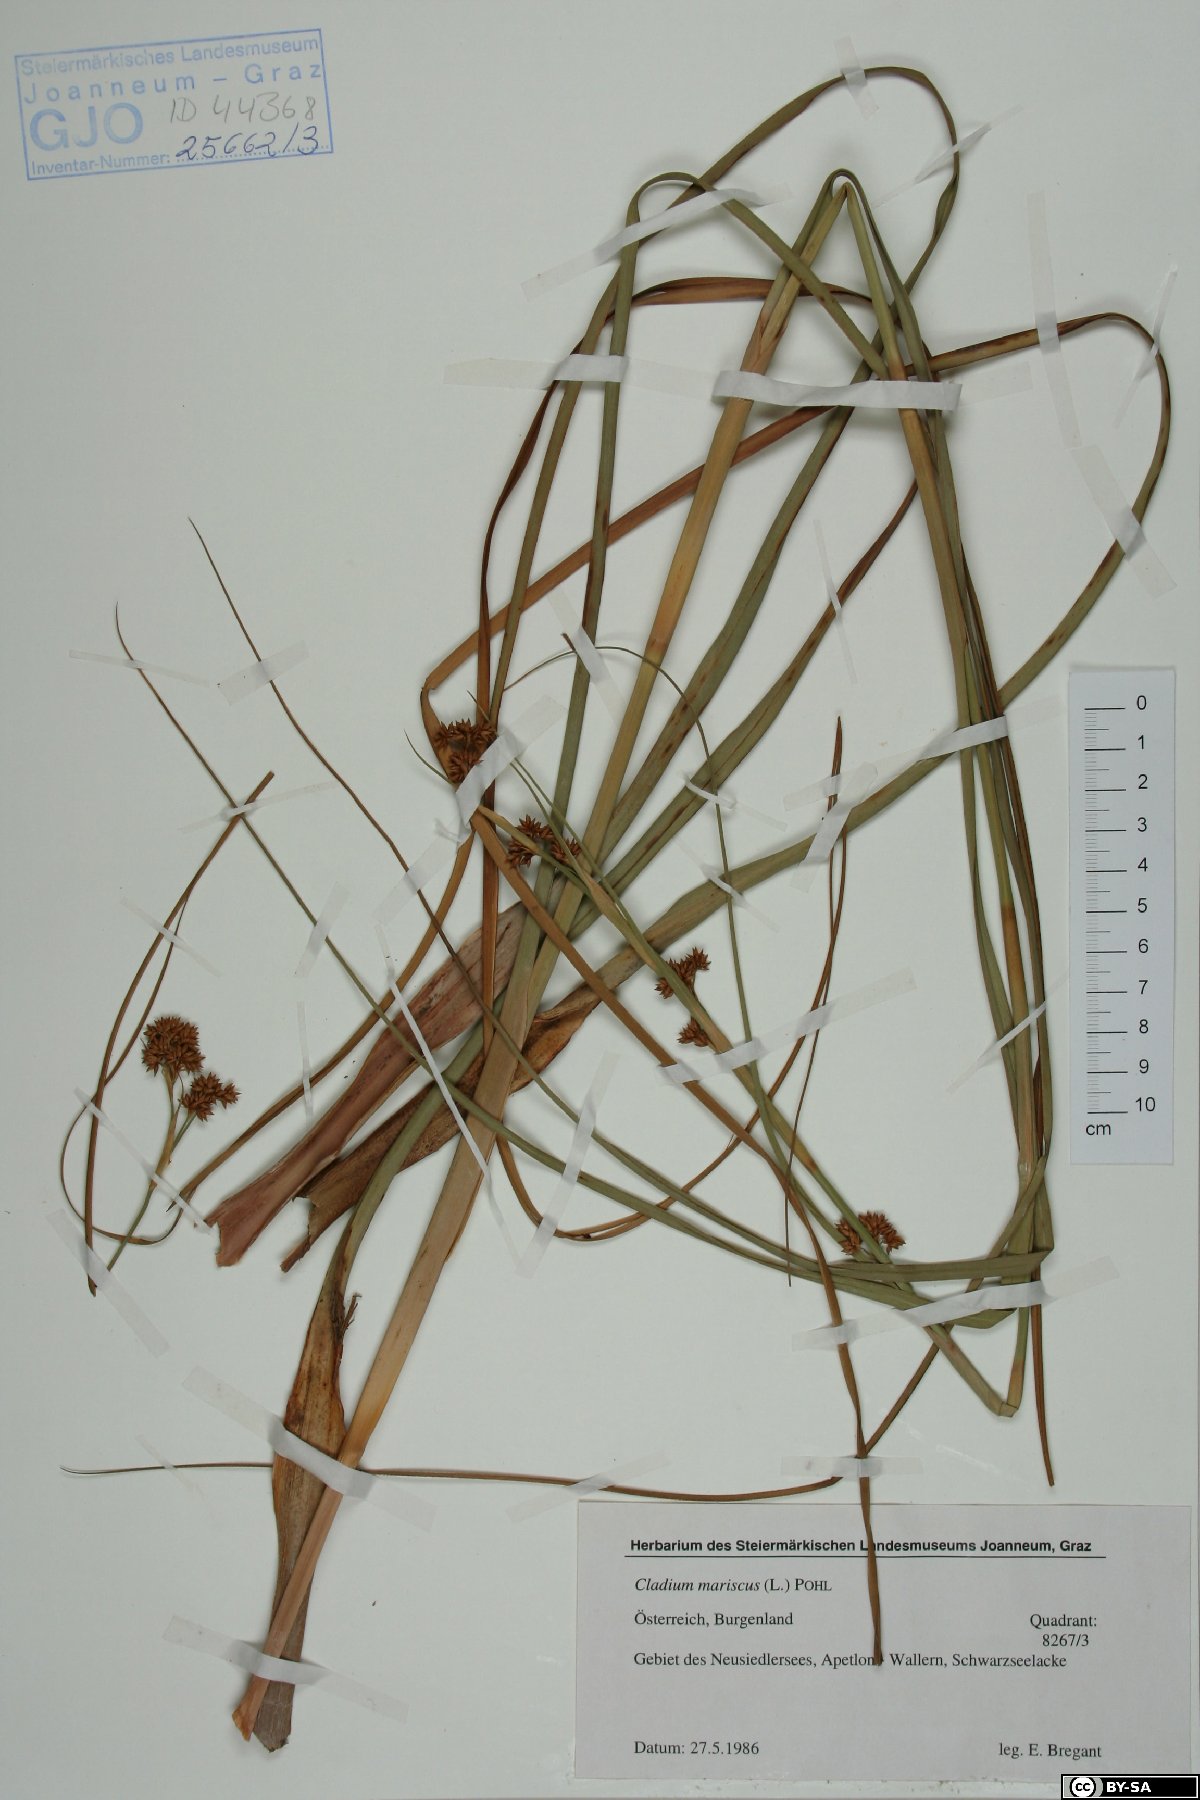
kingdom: Plantae
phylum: Tracheophyta
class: Liliopsida
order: Poales
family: Cyperaceae
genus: Cladium
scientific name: Cladium mariscus
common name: Great fen-sedge
